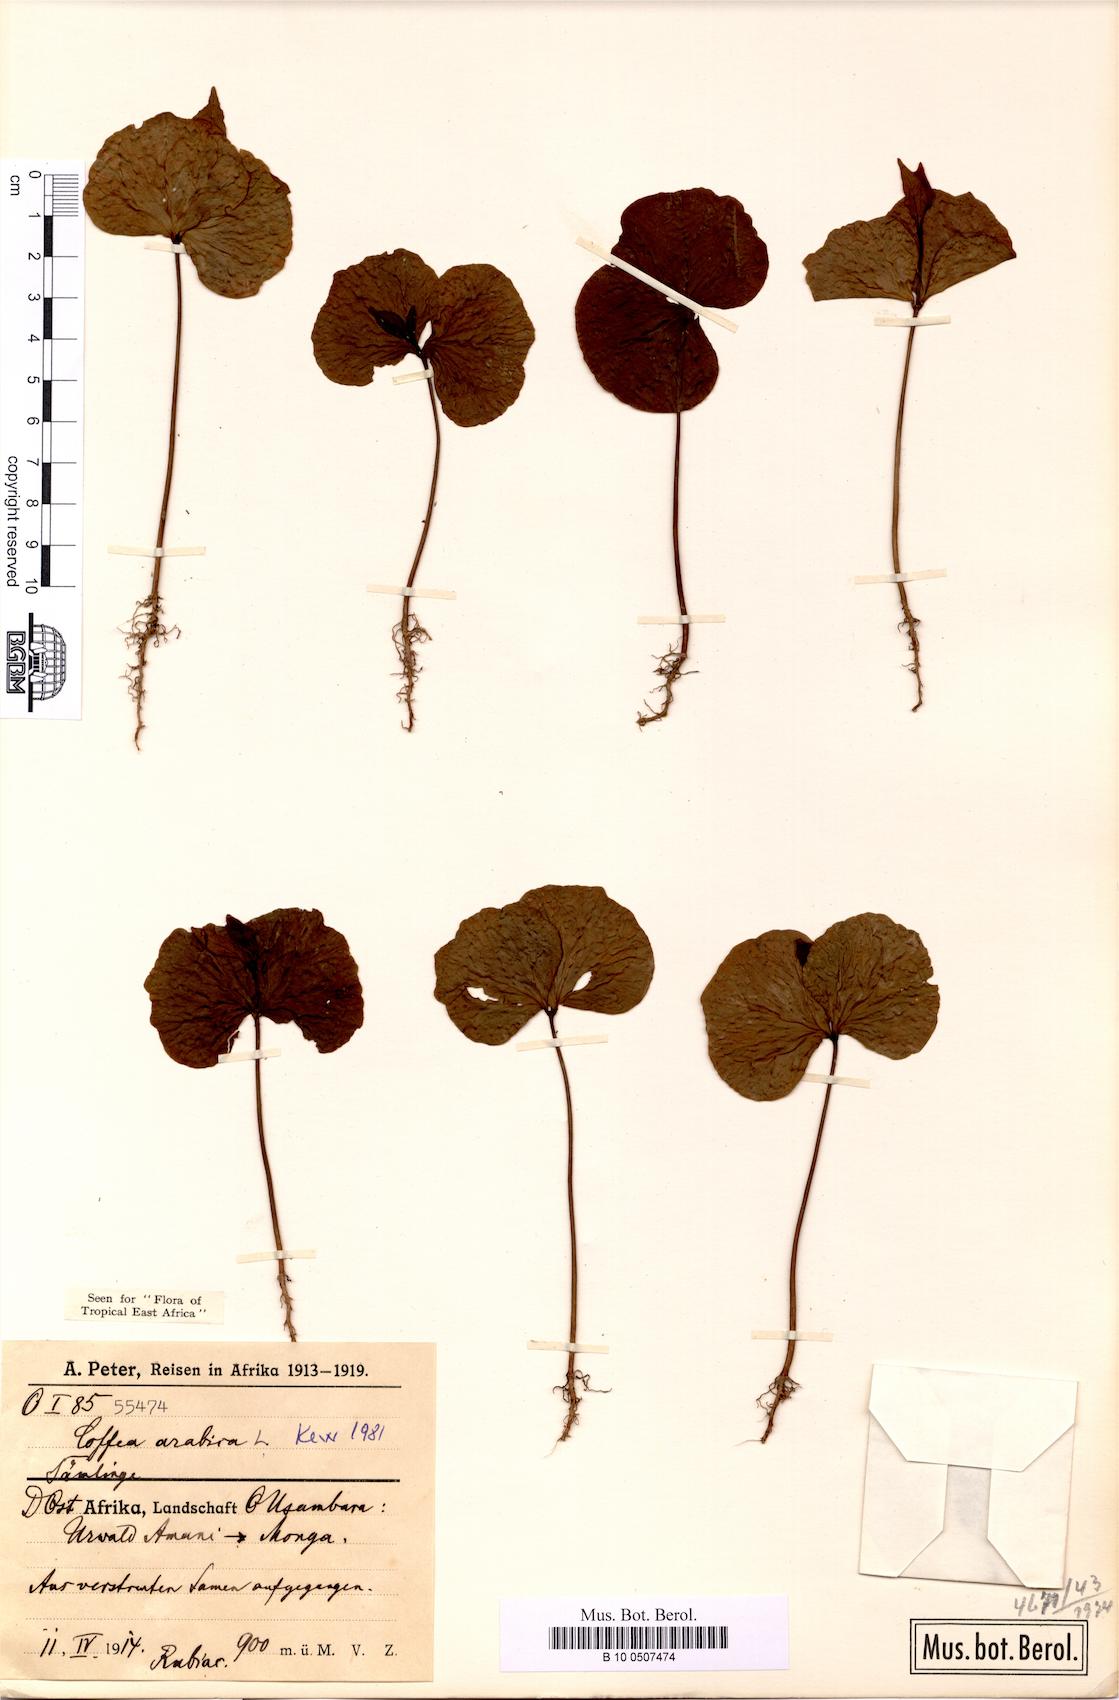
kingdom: Plantae
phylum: Tracheophyta
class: Magnoliopsida
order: Gentianales
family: Rubiaceae
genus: Coffea
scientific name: Coffea arabica
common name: Coffee
